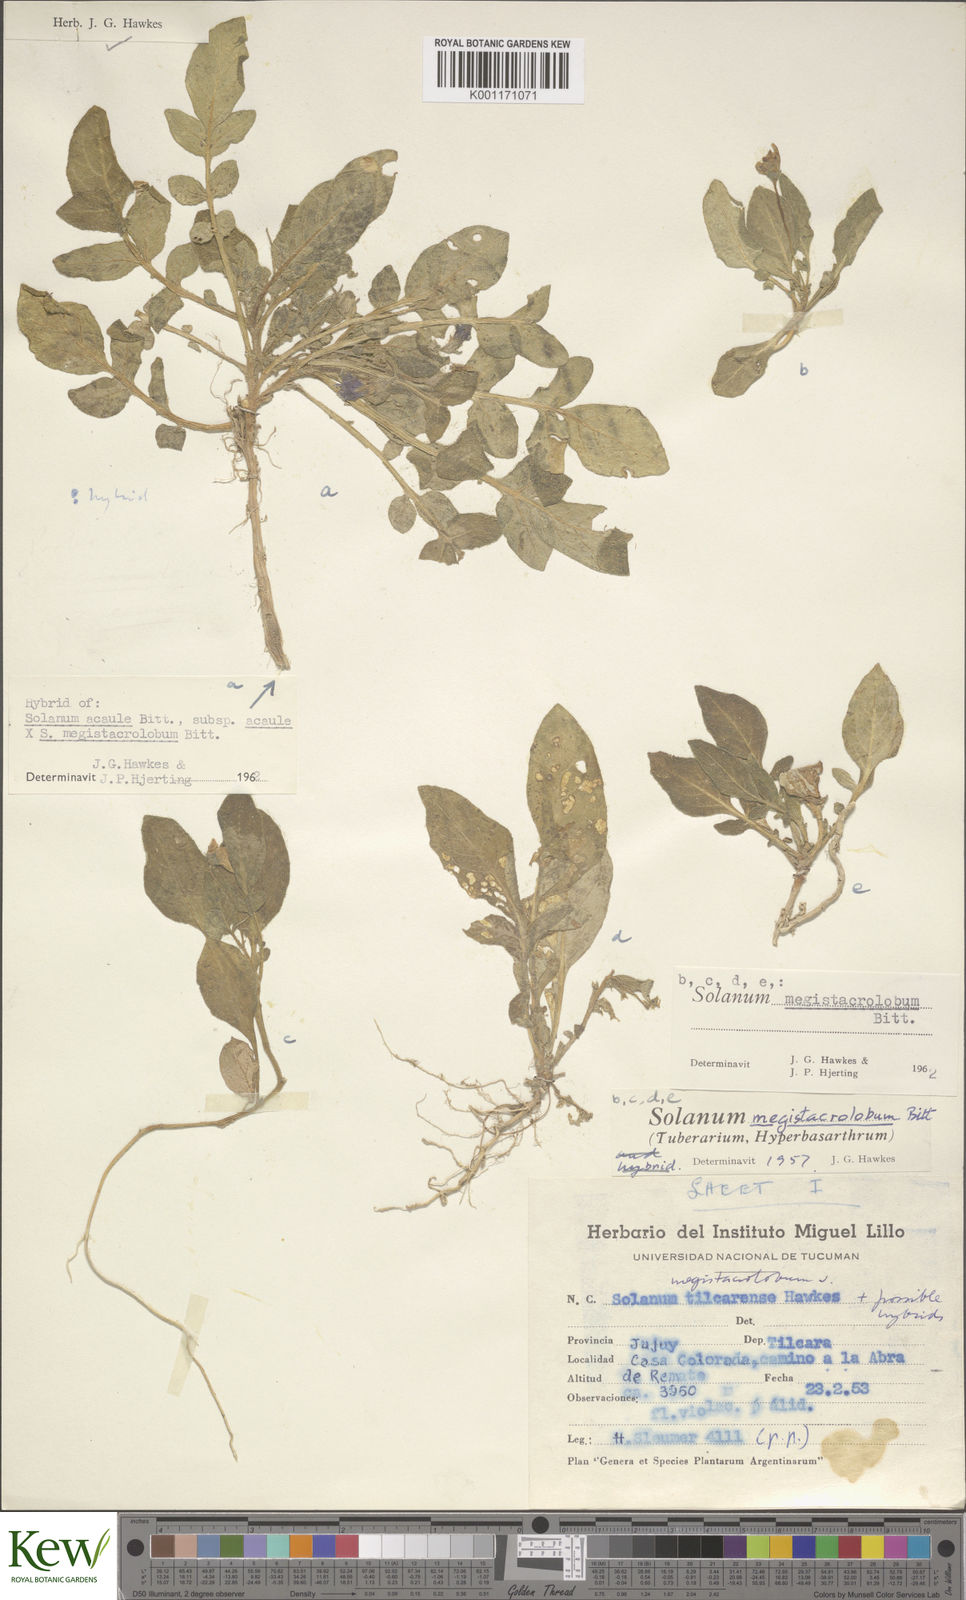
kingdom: Plantae
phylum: Tracheophyta
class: Magnoliopsida
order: Solanales
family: Solanaceae
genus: Solanum
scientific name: Solanum acaule
